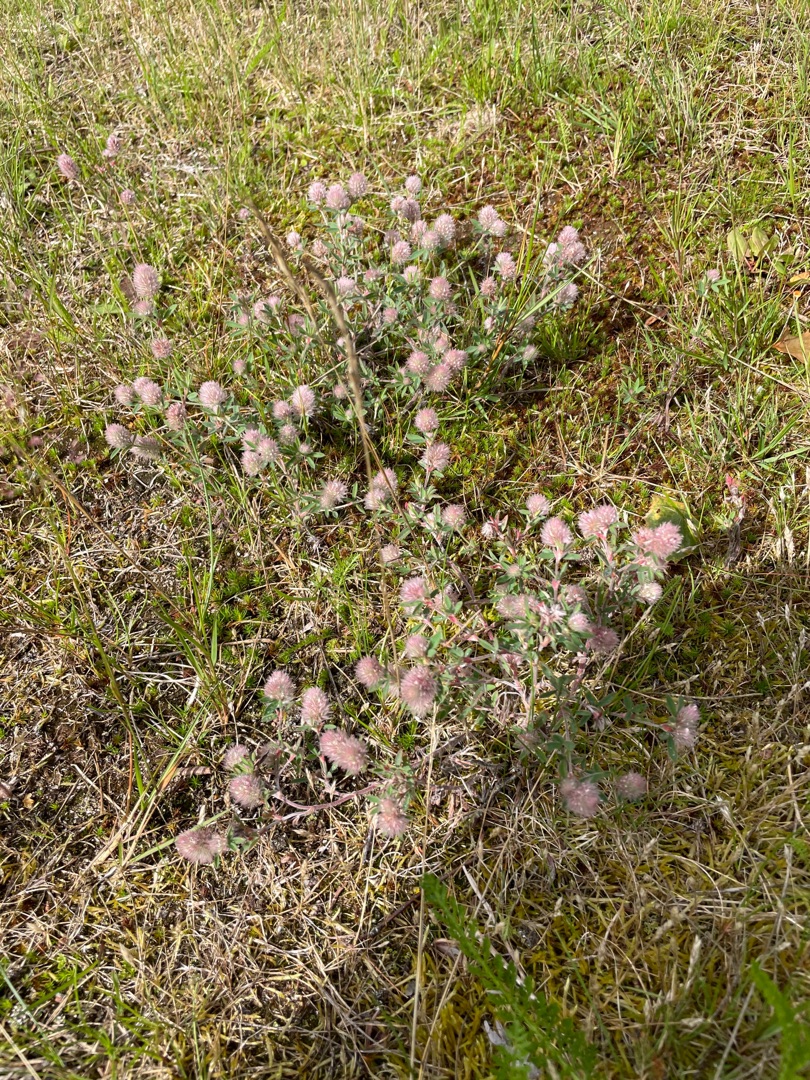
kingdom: Plantae
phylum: Tracheophyta
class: Magnoliopsida
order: Fabales
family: Fabaceae
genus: Trifolium
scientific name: Trifolium arvense
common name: Hare-kløver
